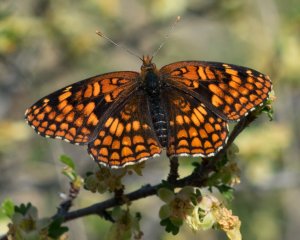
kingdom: Animalia
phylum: Arthropoda
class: Insecta
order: Lepidoptera
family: Nymphalidae
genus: Chlosyne
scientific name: Chlosyne palla
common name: Northern Checkerspot
